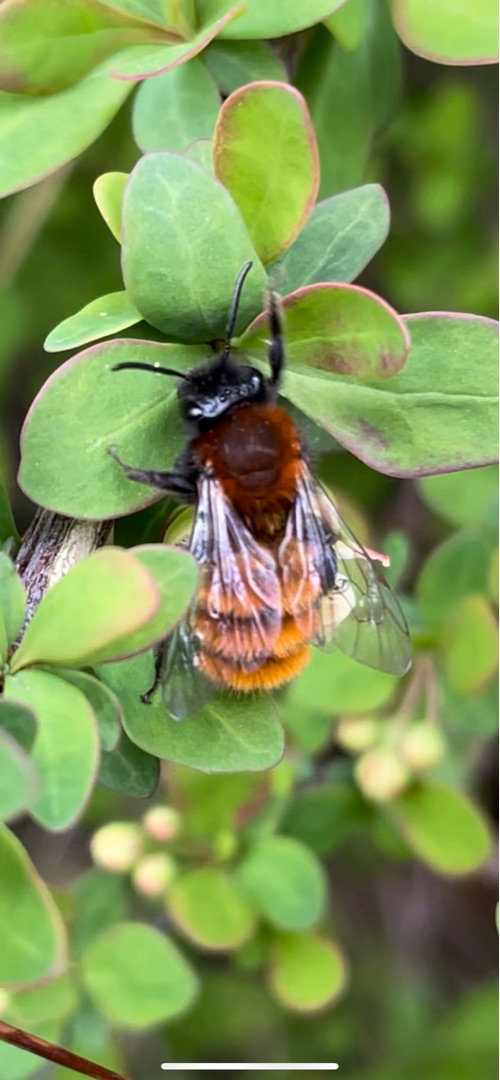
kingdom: Animalia
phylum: Arthropoda
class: Insecta
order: Hymenoptera
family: Andrenidae
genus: Andrena
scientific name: Andrena fulva
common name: Rødpelset jordbi
